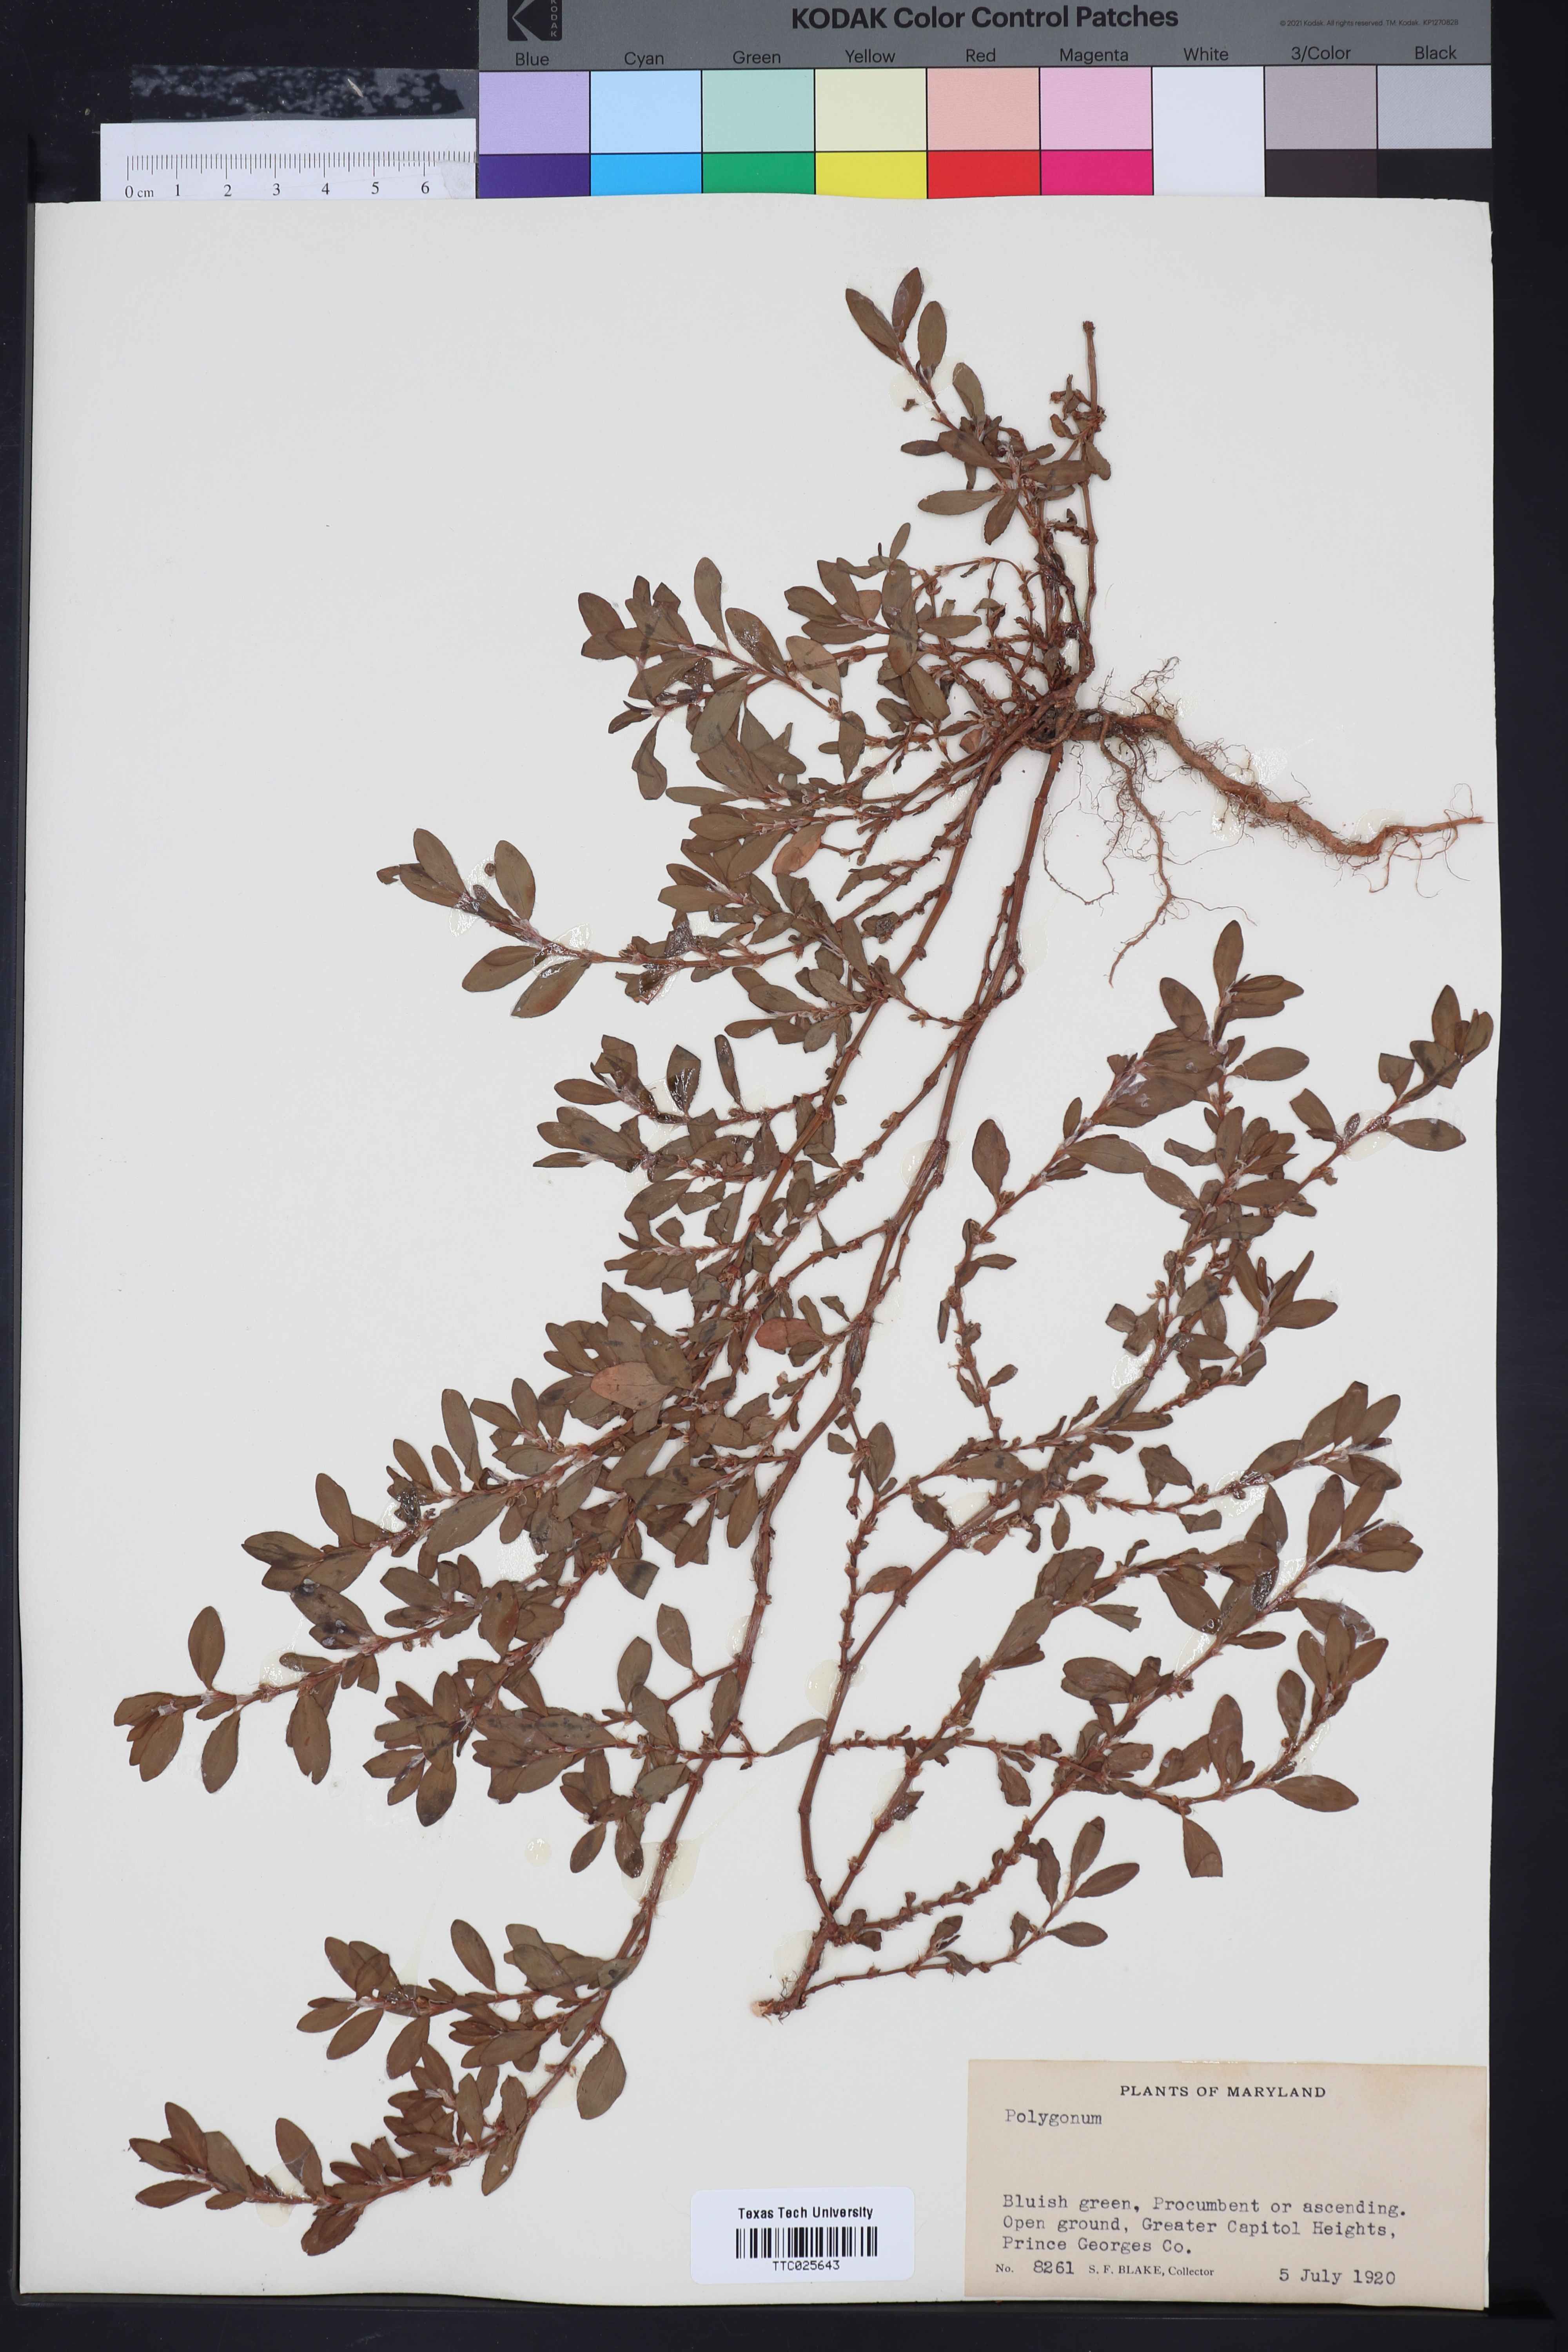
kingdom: Plantae
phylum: Tracheophyta
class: Magnoliopsida
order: Caryophyllales
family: Polygonaceae
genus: Polygonum
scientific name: Polygonum
